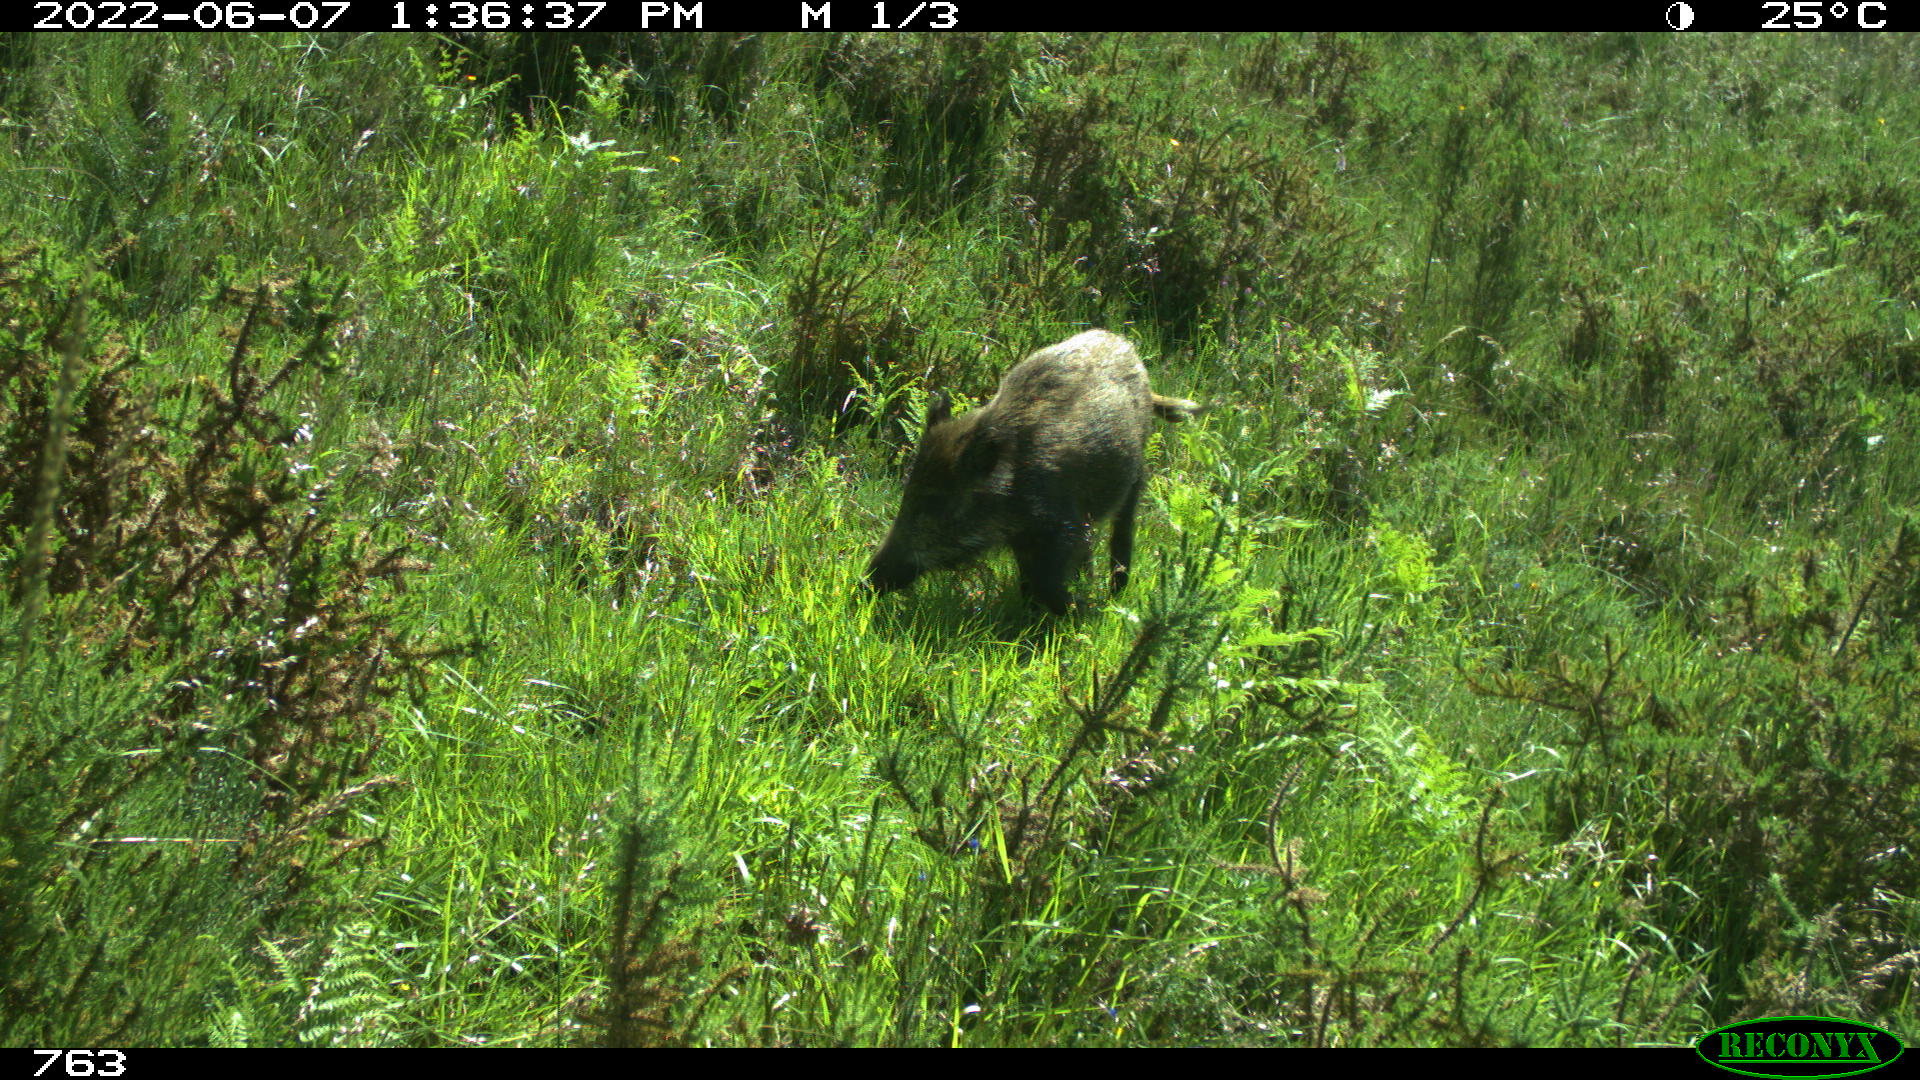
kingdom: Animalia
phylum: Chordata
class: Mammalia
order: Artiodactyla
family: Suidae
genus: Sus
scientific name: Sus scrofa
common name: Wild boar
